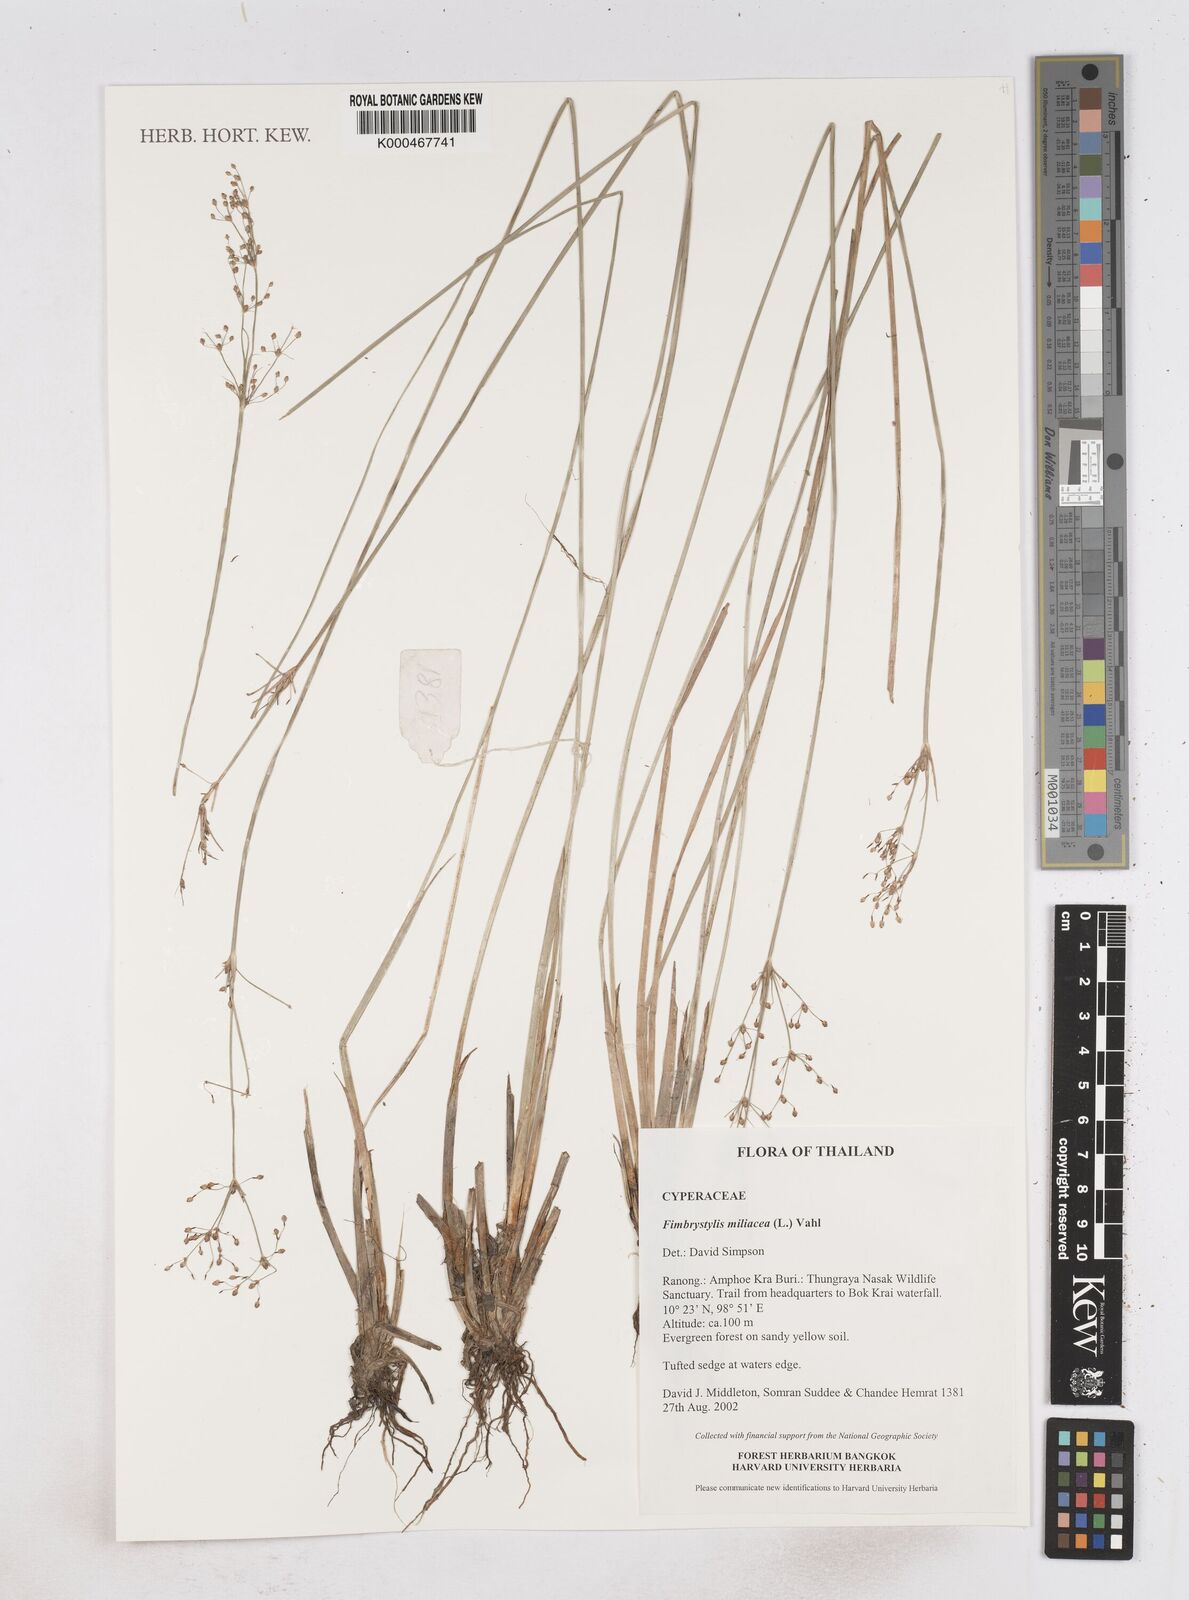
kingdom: Plantae
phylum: Tracheophyta
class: Liliopsida
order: Poales
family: Cyperaceae
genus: Fimbristylis
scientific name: Fimbristylis quinquangularis
